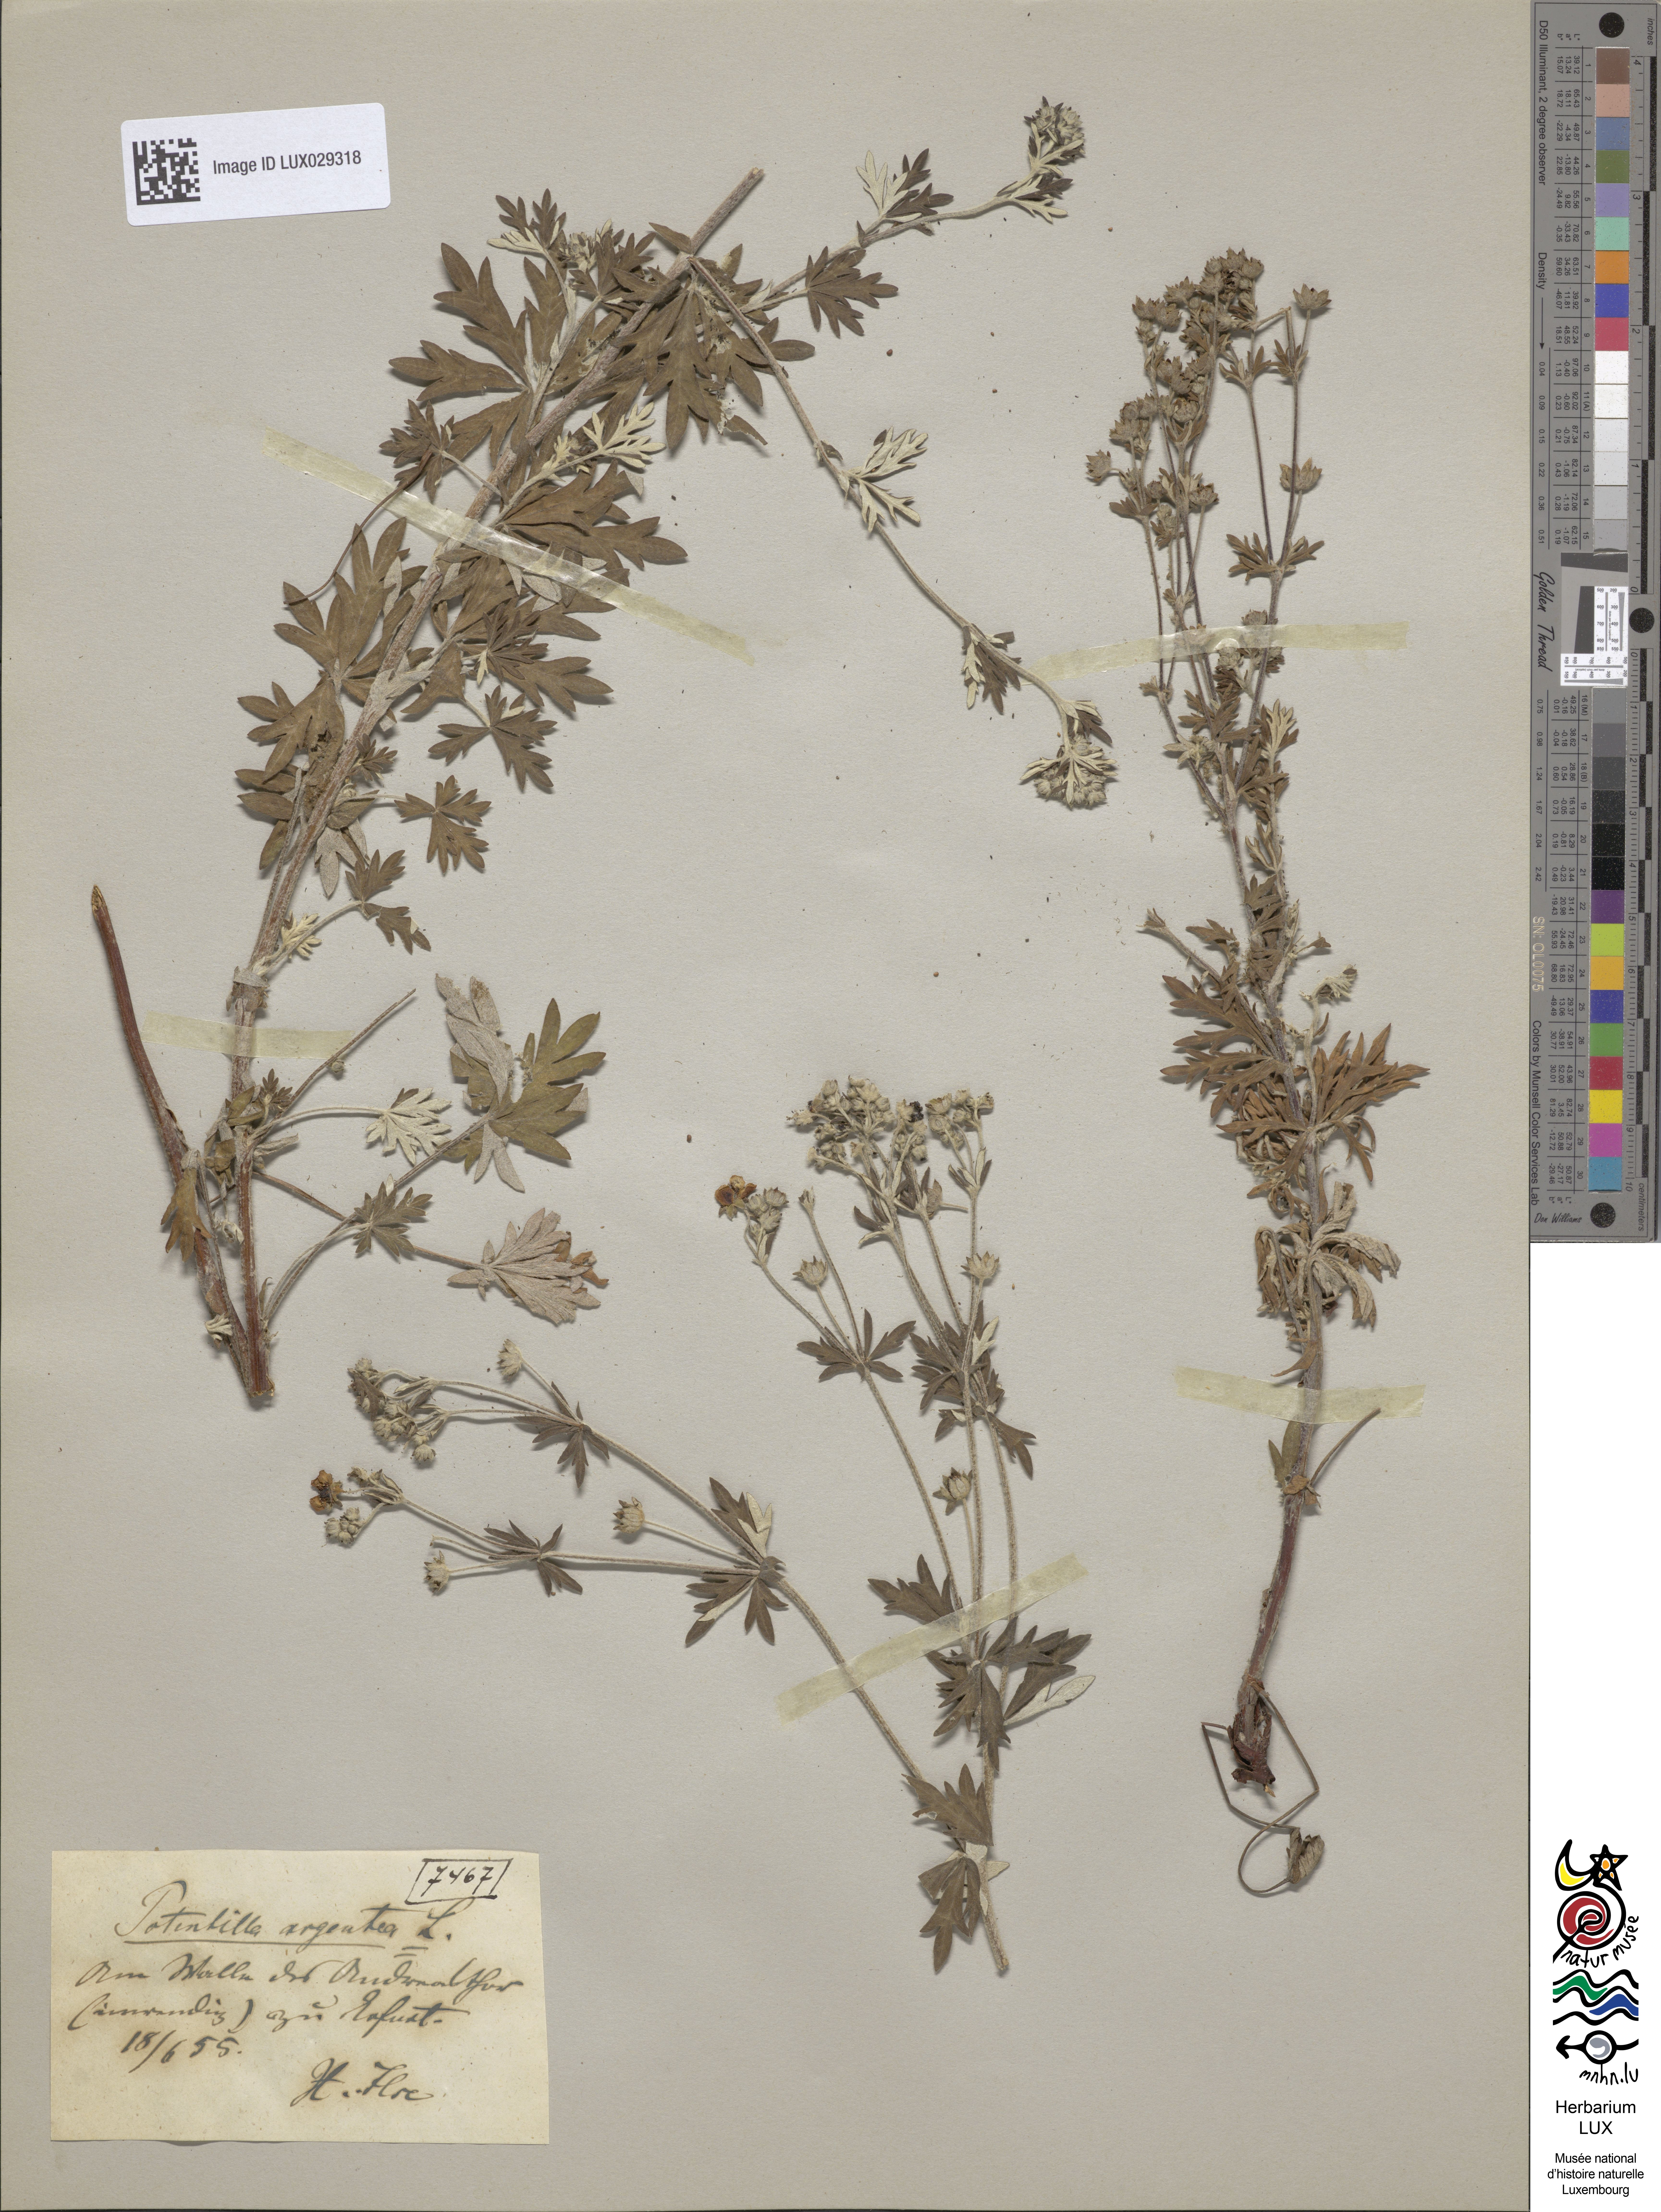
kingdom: Plantae
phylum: Tracheophyta
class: Magnoliopsida
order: Rosales
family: Rosaceae
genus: Potentilla
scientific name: Potentilla argentea
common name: Hoary cinquefoil
